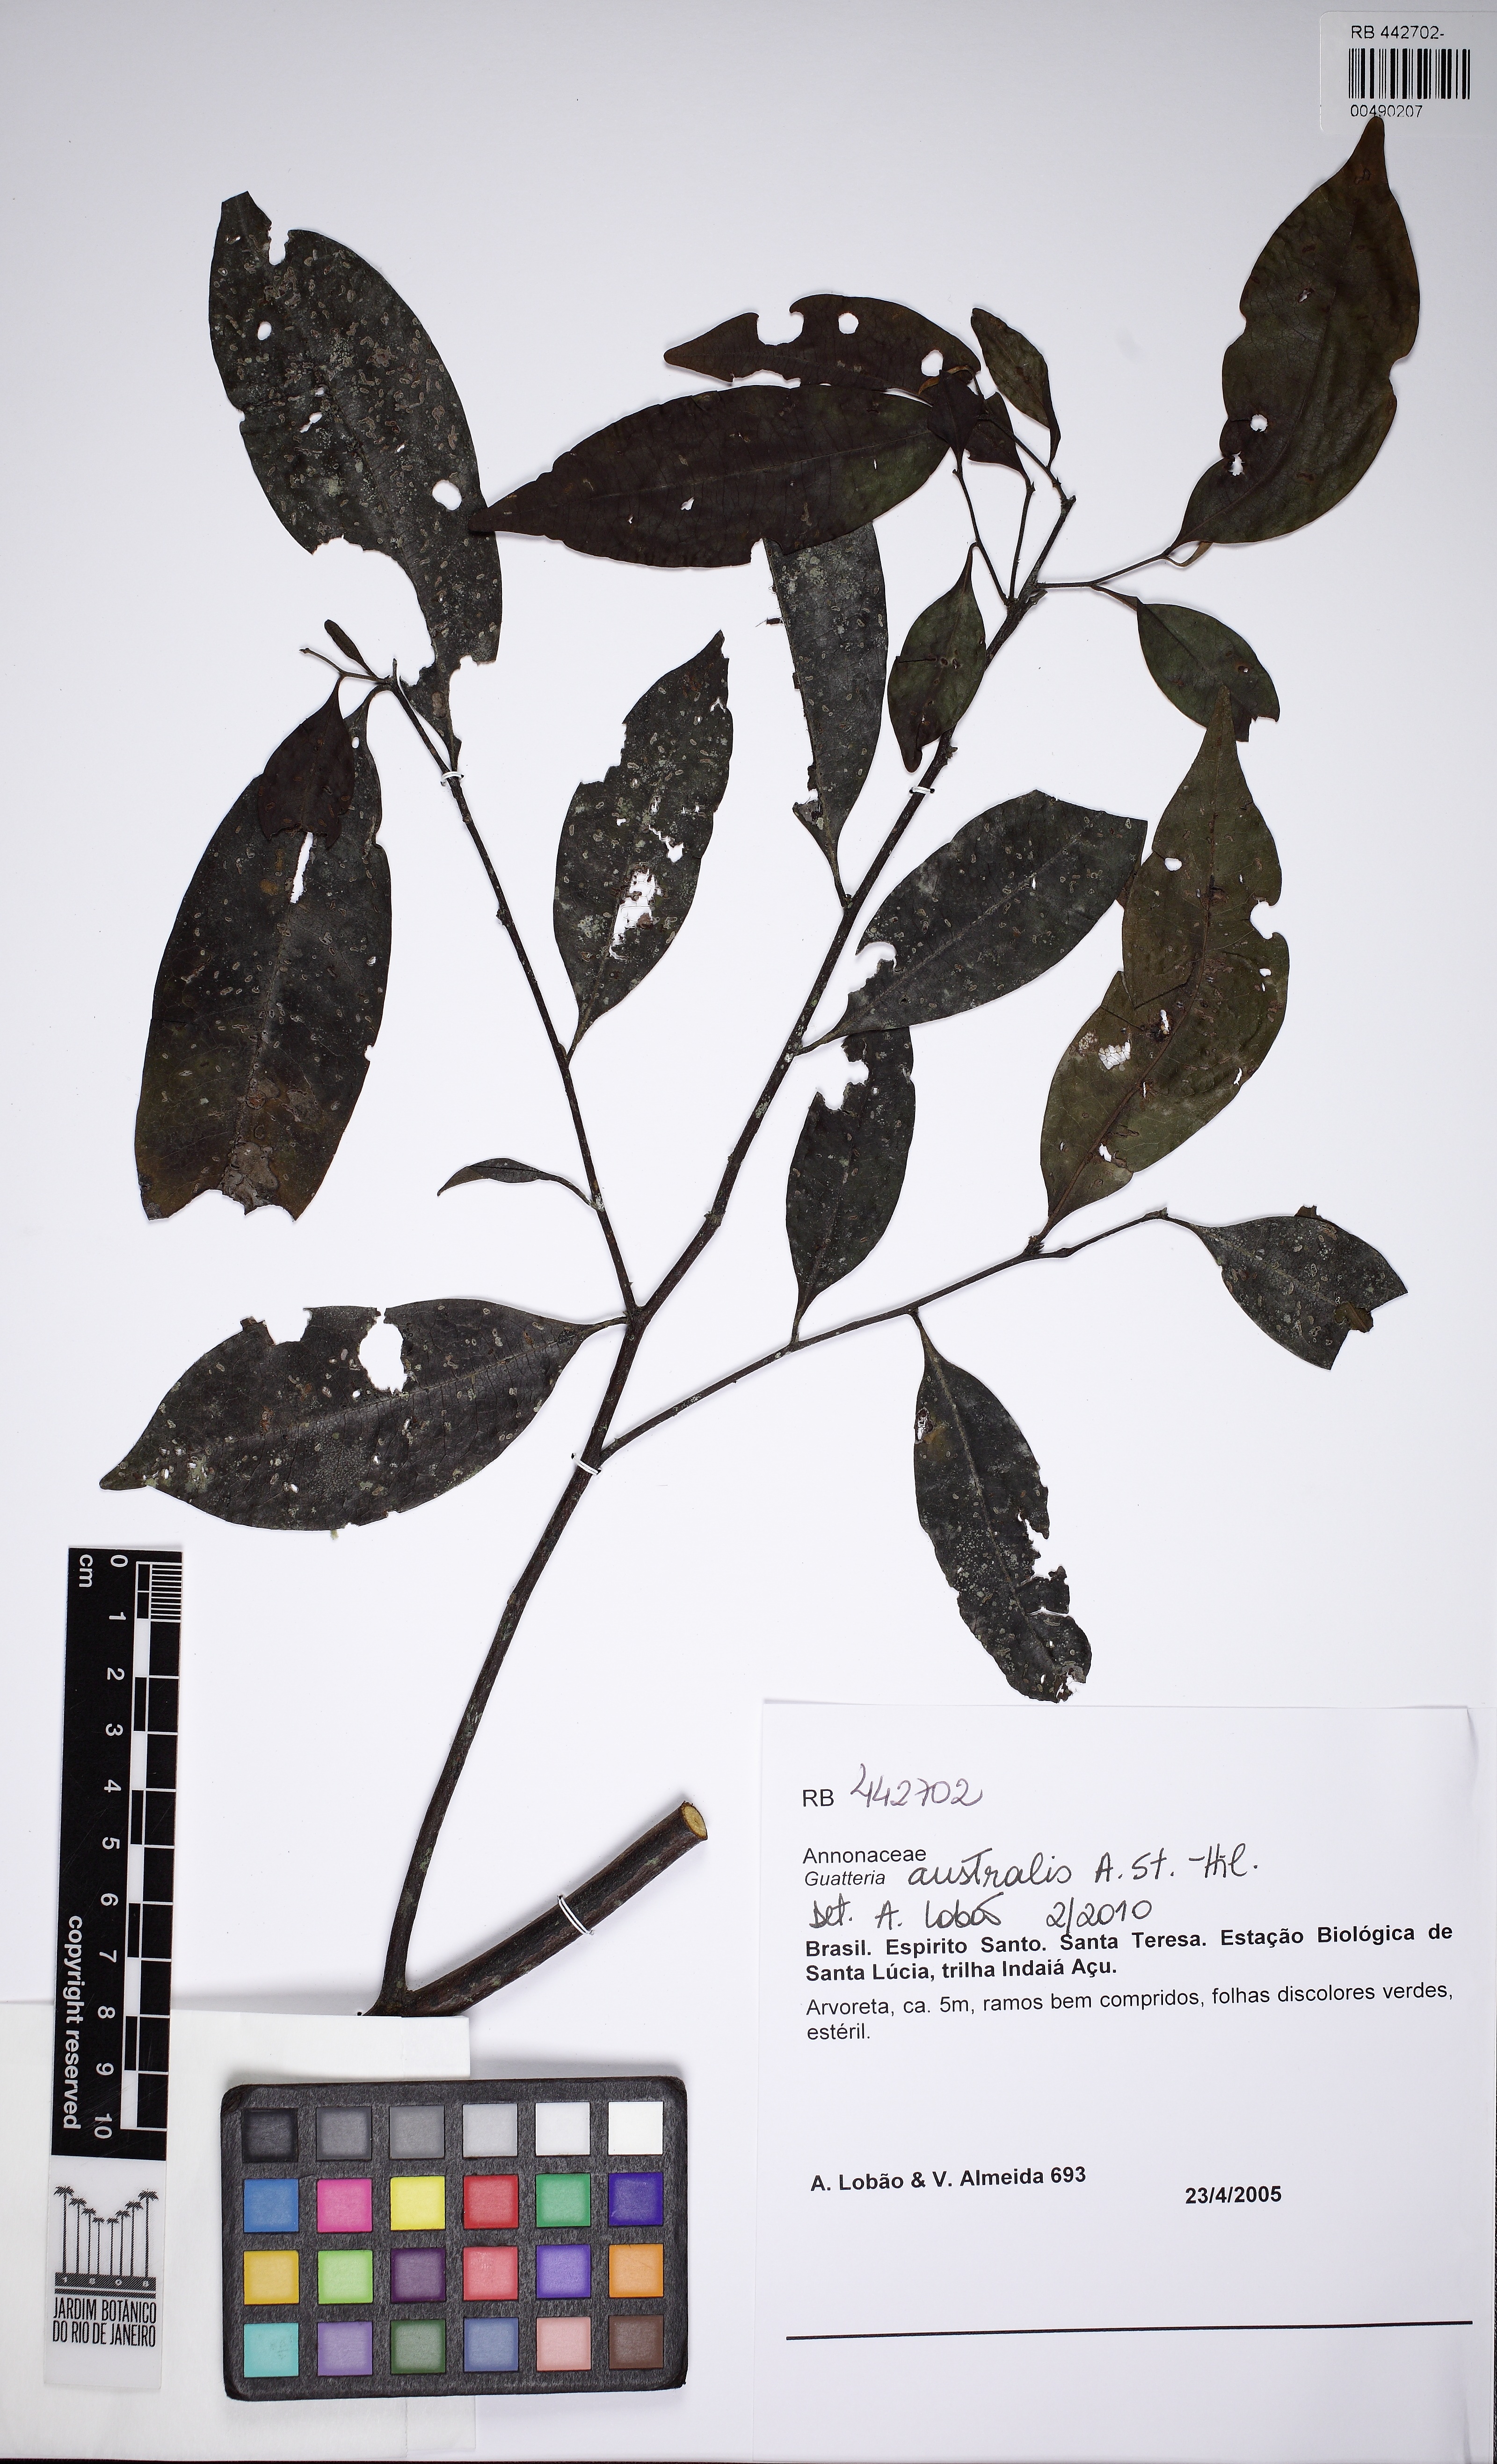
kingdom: Plantae
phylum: Tracheophyta
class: Magnoliopsida
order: Magnoliales
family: Annonaceae
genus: Guatteria
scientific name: Guatteria australis
